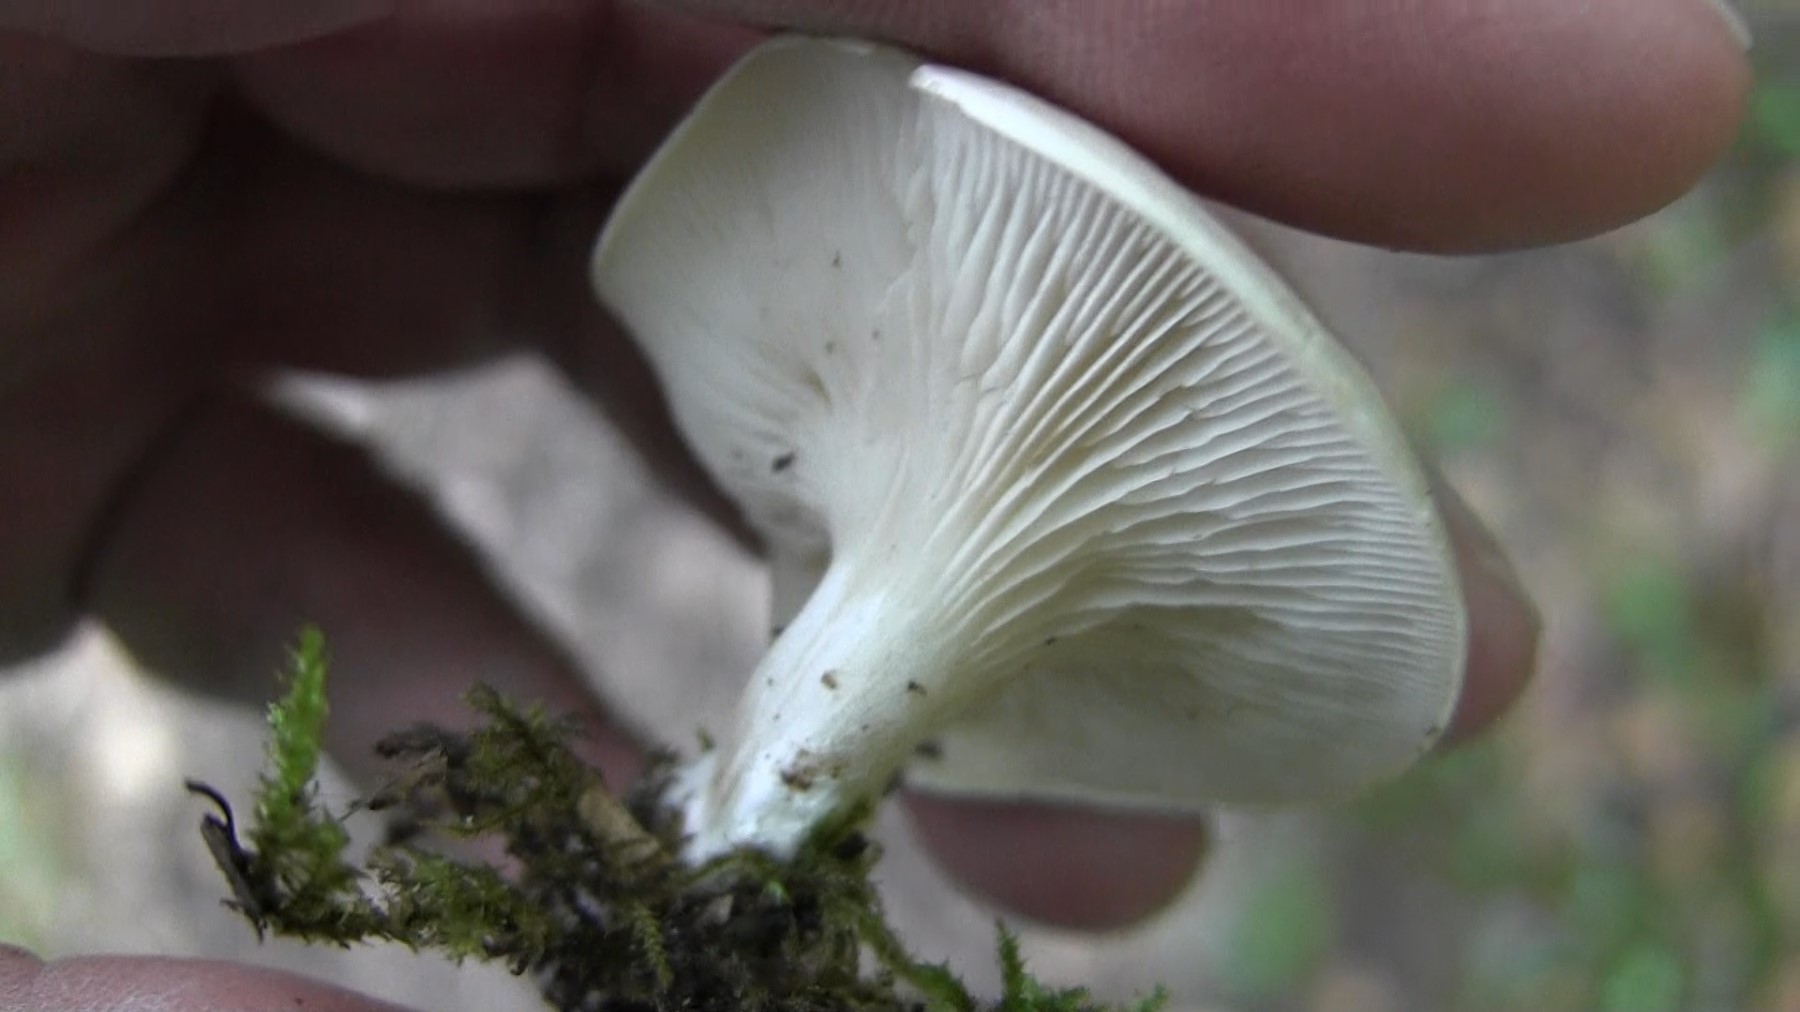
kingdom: Fungi
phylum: Basidiomycota
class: Agaricomycetes
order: Agaricales
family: Entolomataceae
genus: Clitopilus
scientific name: Clitopilus prunulus
